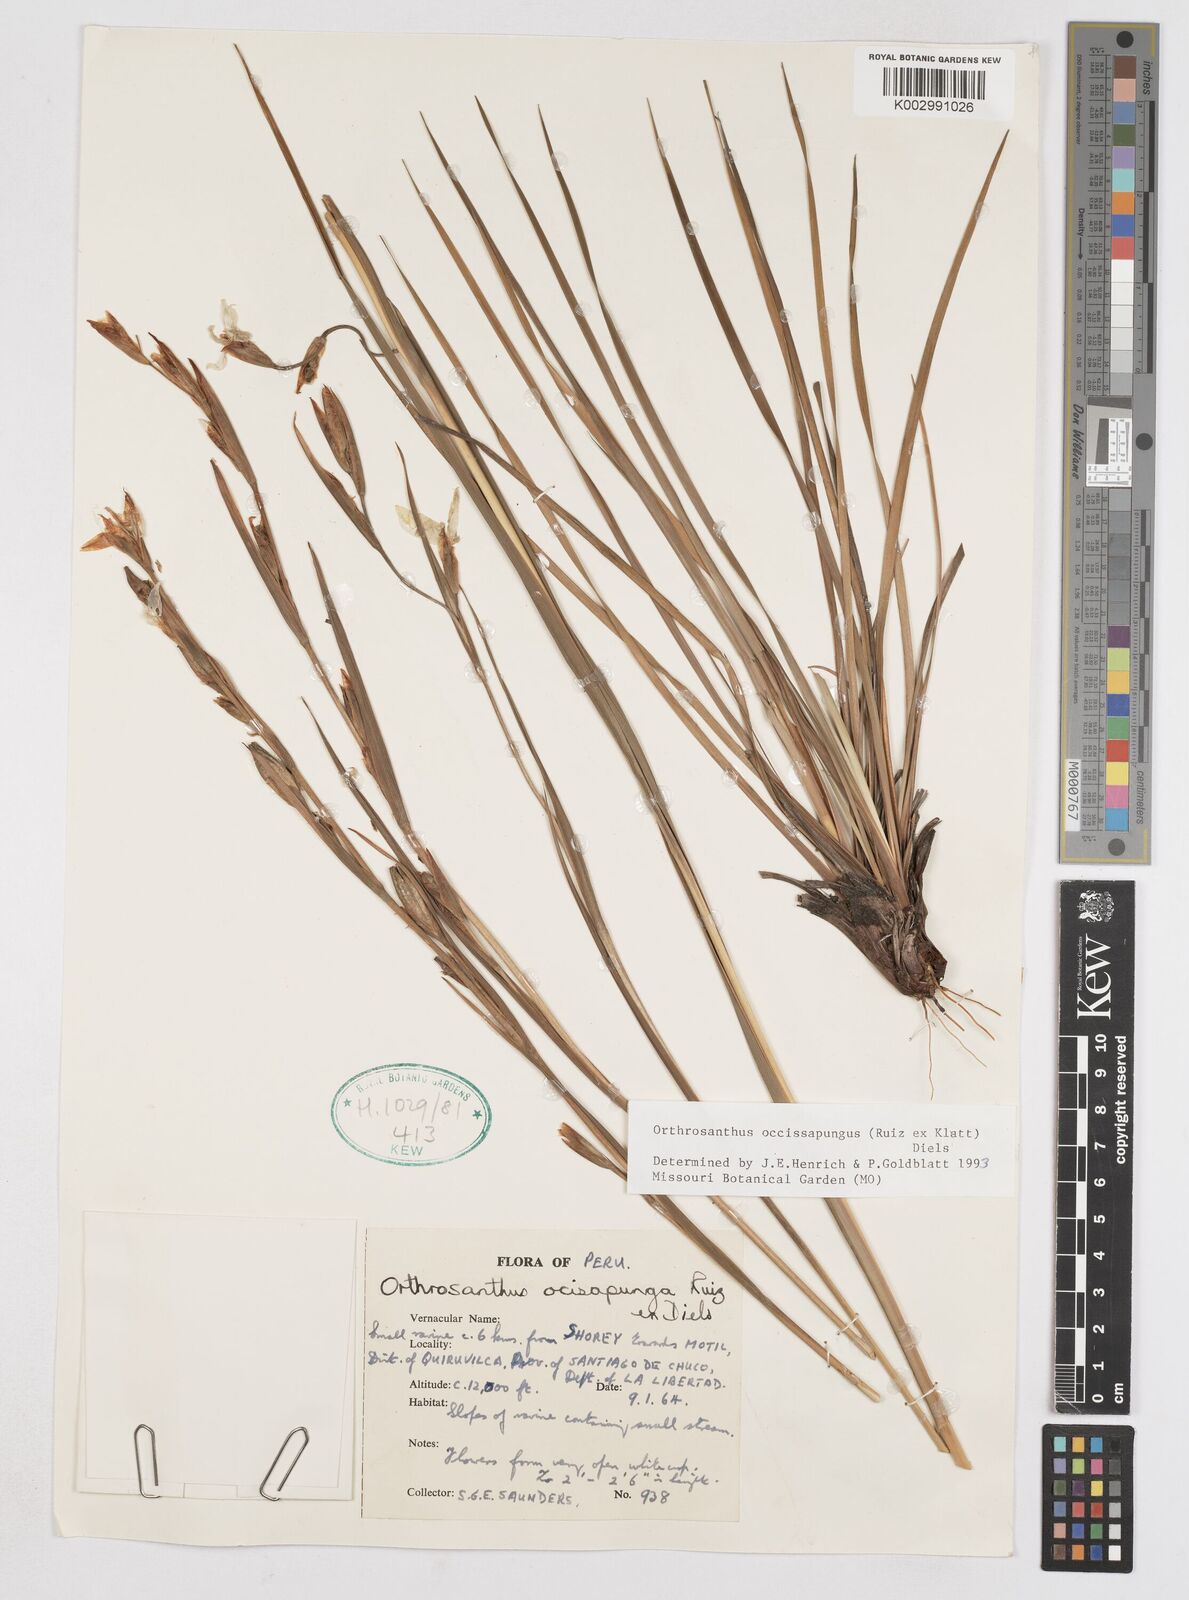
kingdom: Plantae
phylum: Tracheophyta
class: Liliopsida
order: Asparagales
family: Iridaceae
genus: Orthrosanthus
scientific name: Orthrosanthus occissapungus
